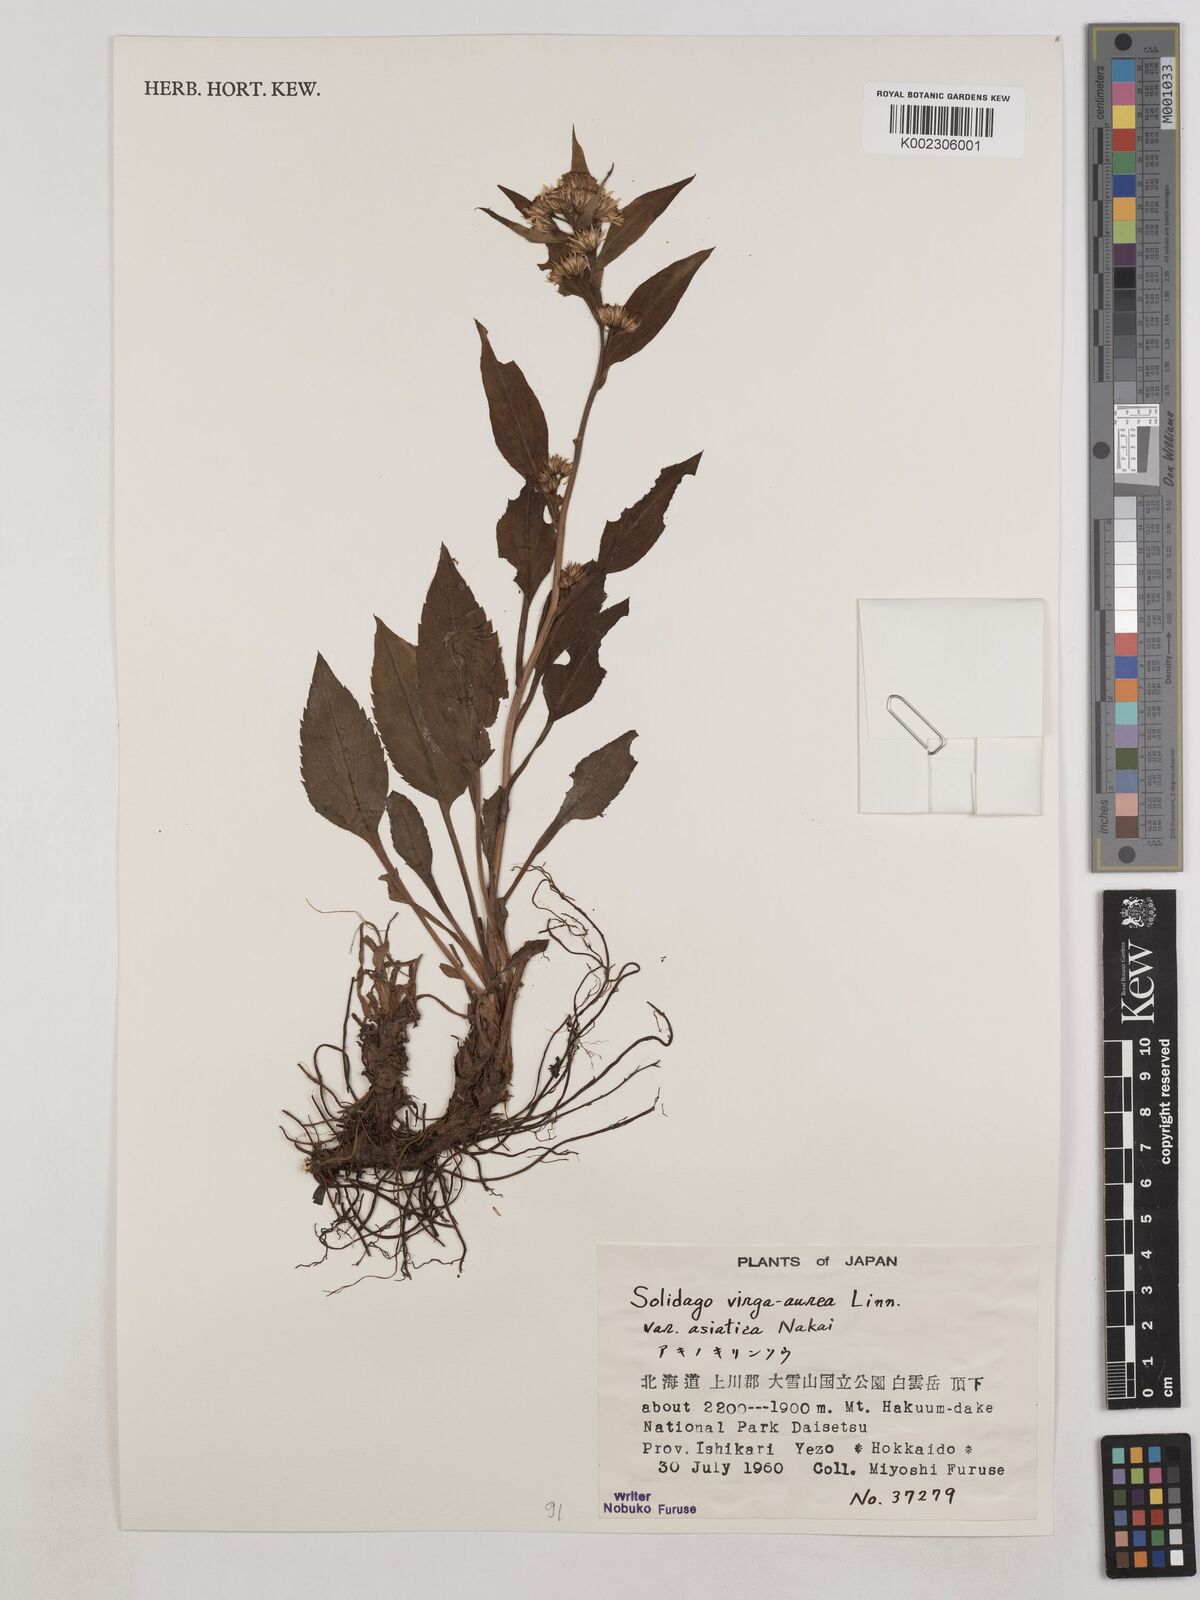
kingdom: Plantae
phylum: Tracheophyta
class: Magnoliopsida
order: Asterales
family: Asteraceae
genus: Solidago
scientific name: Solidago virgaurea
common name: Goldenrod
